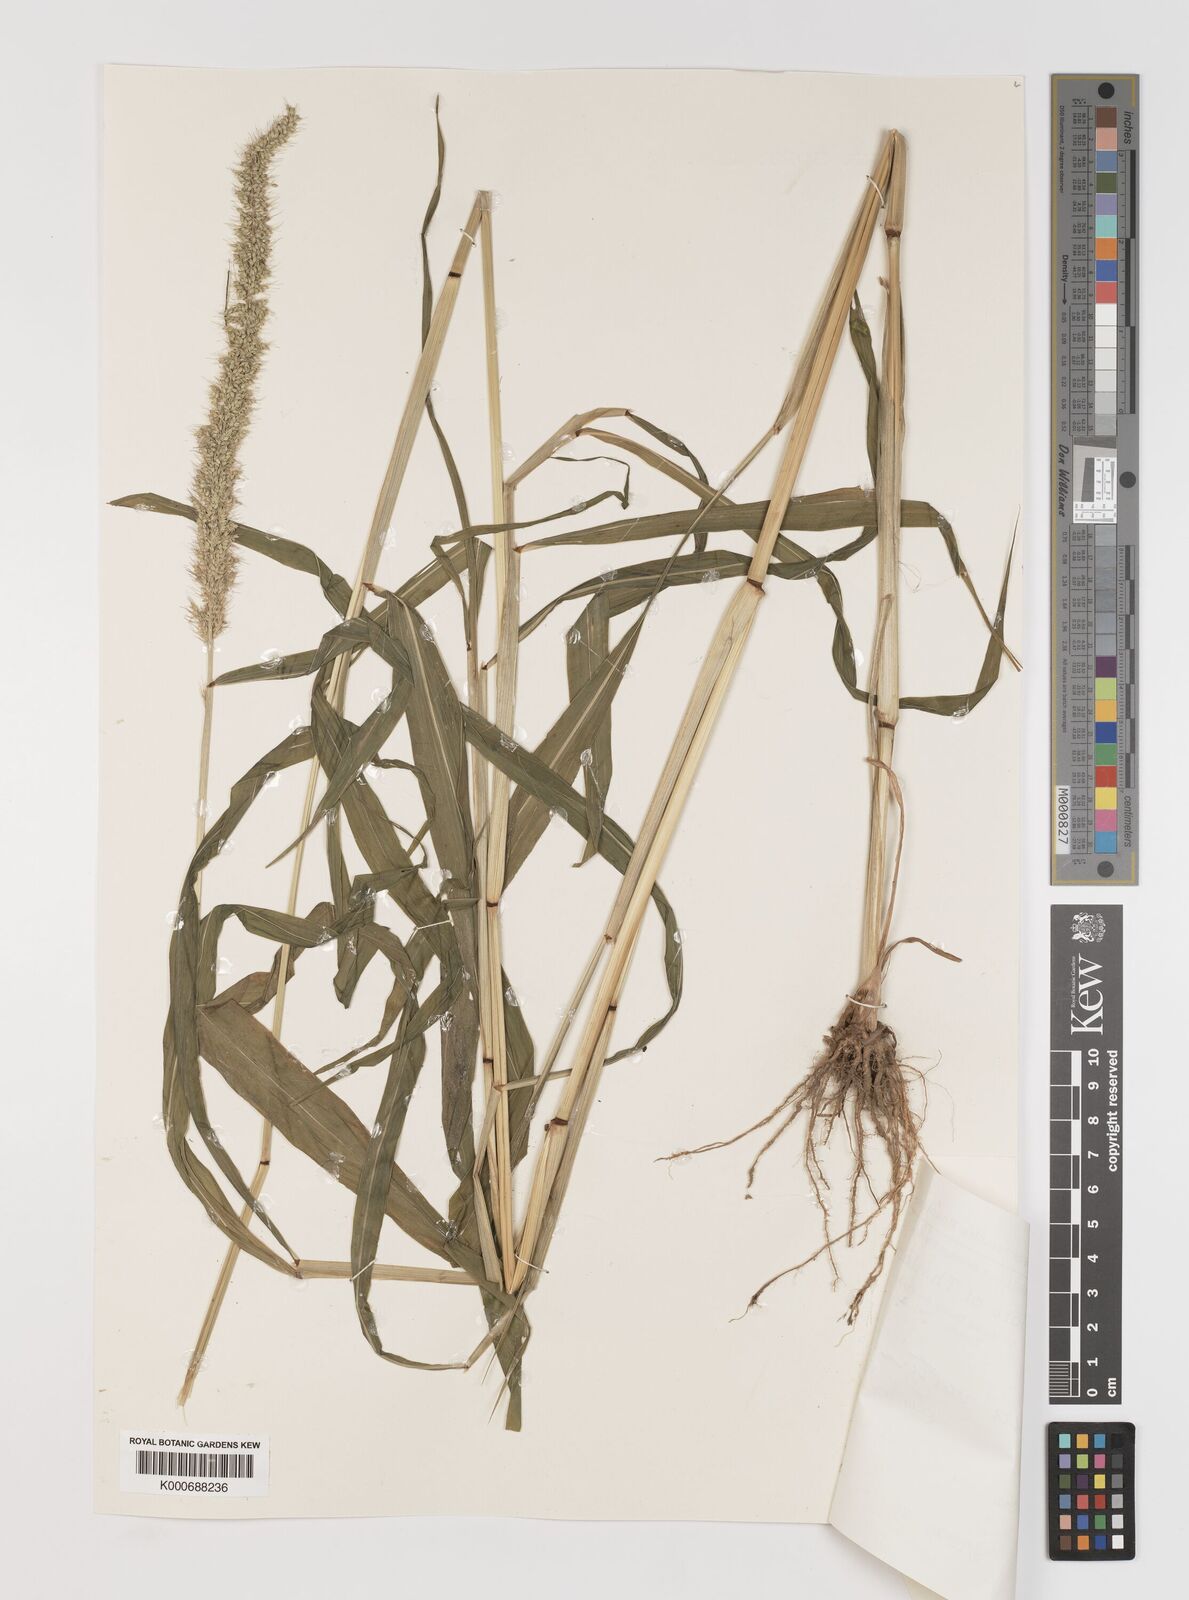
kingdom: Plantae
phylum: Tracheophyta
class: Liliopsida
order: Poales
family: Poaceae
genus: Setaria
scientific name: Setaria verticillata
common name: Hooked bristlegrass
